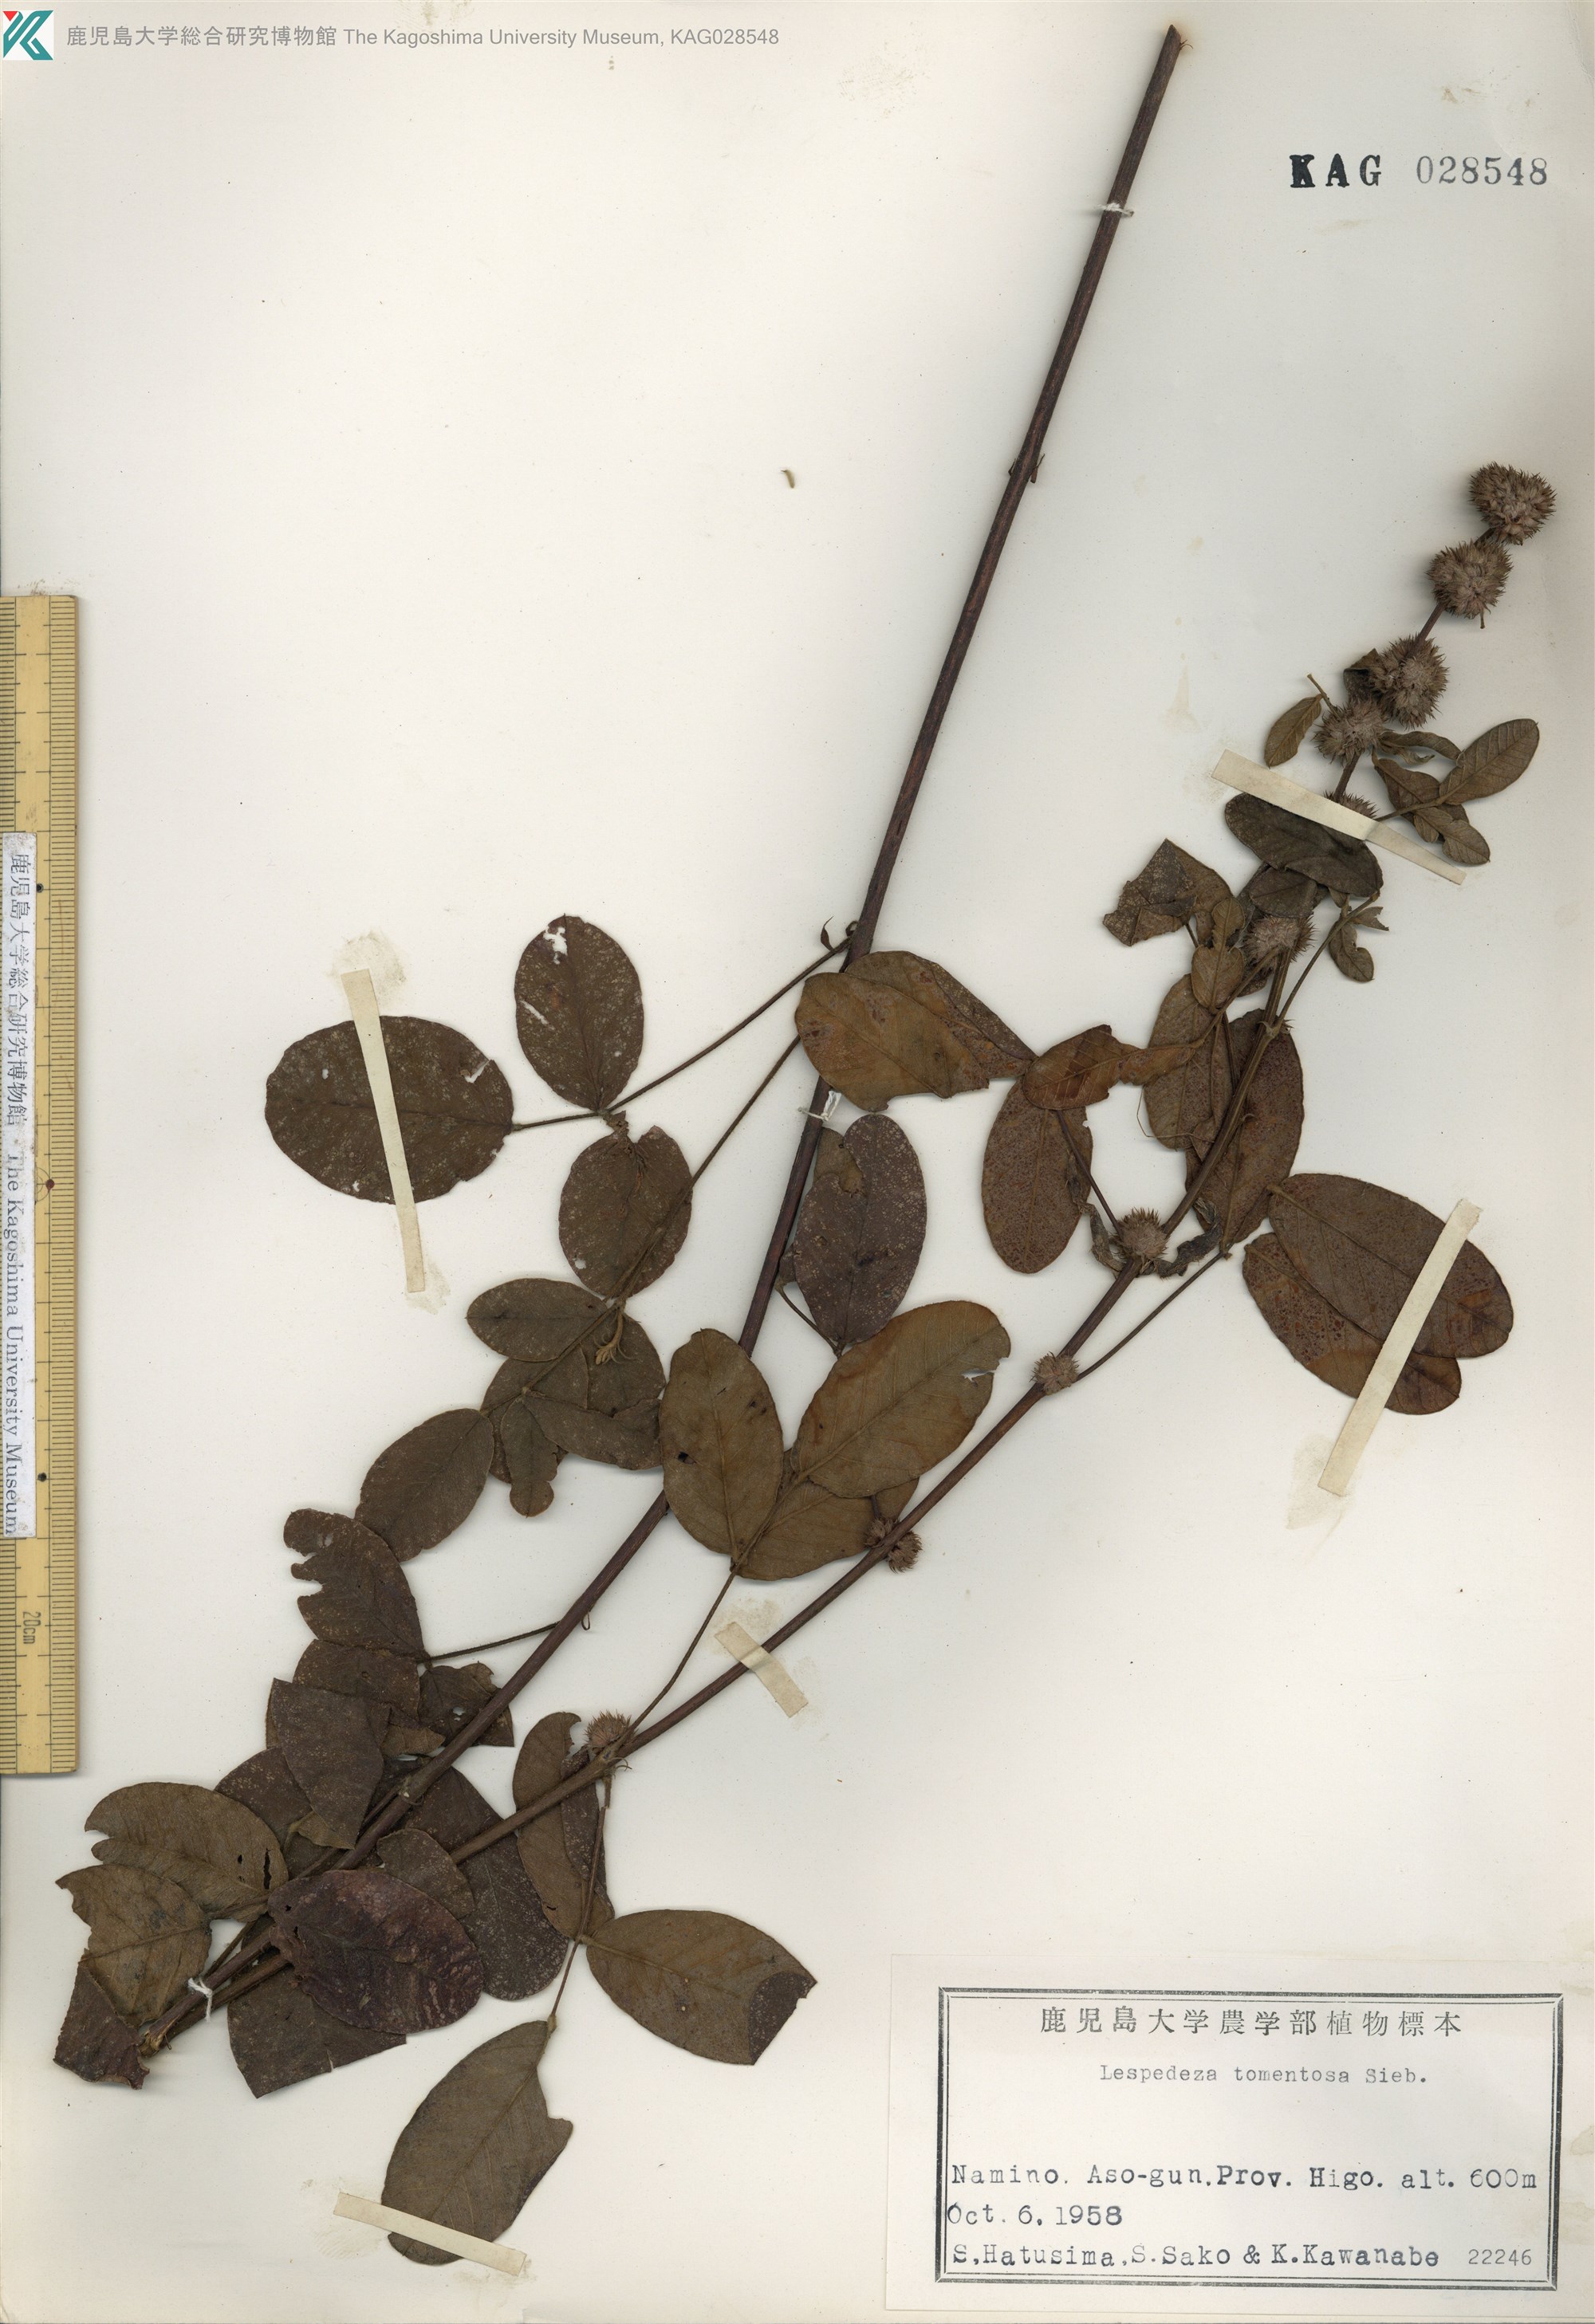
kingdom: Plantae
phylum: Tracheophyta
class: Magnoliopsida
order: Fabales
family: Fabaceae
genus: Lespedeza
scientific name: Lespedeza tomentosa
